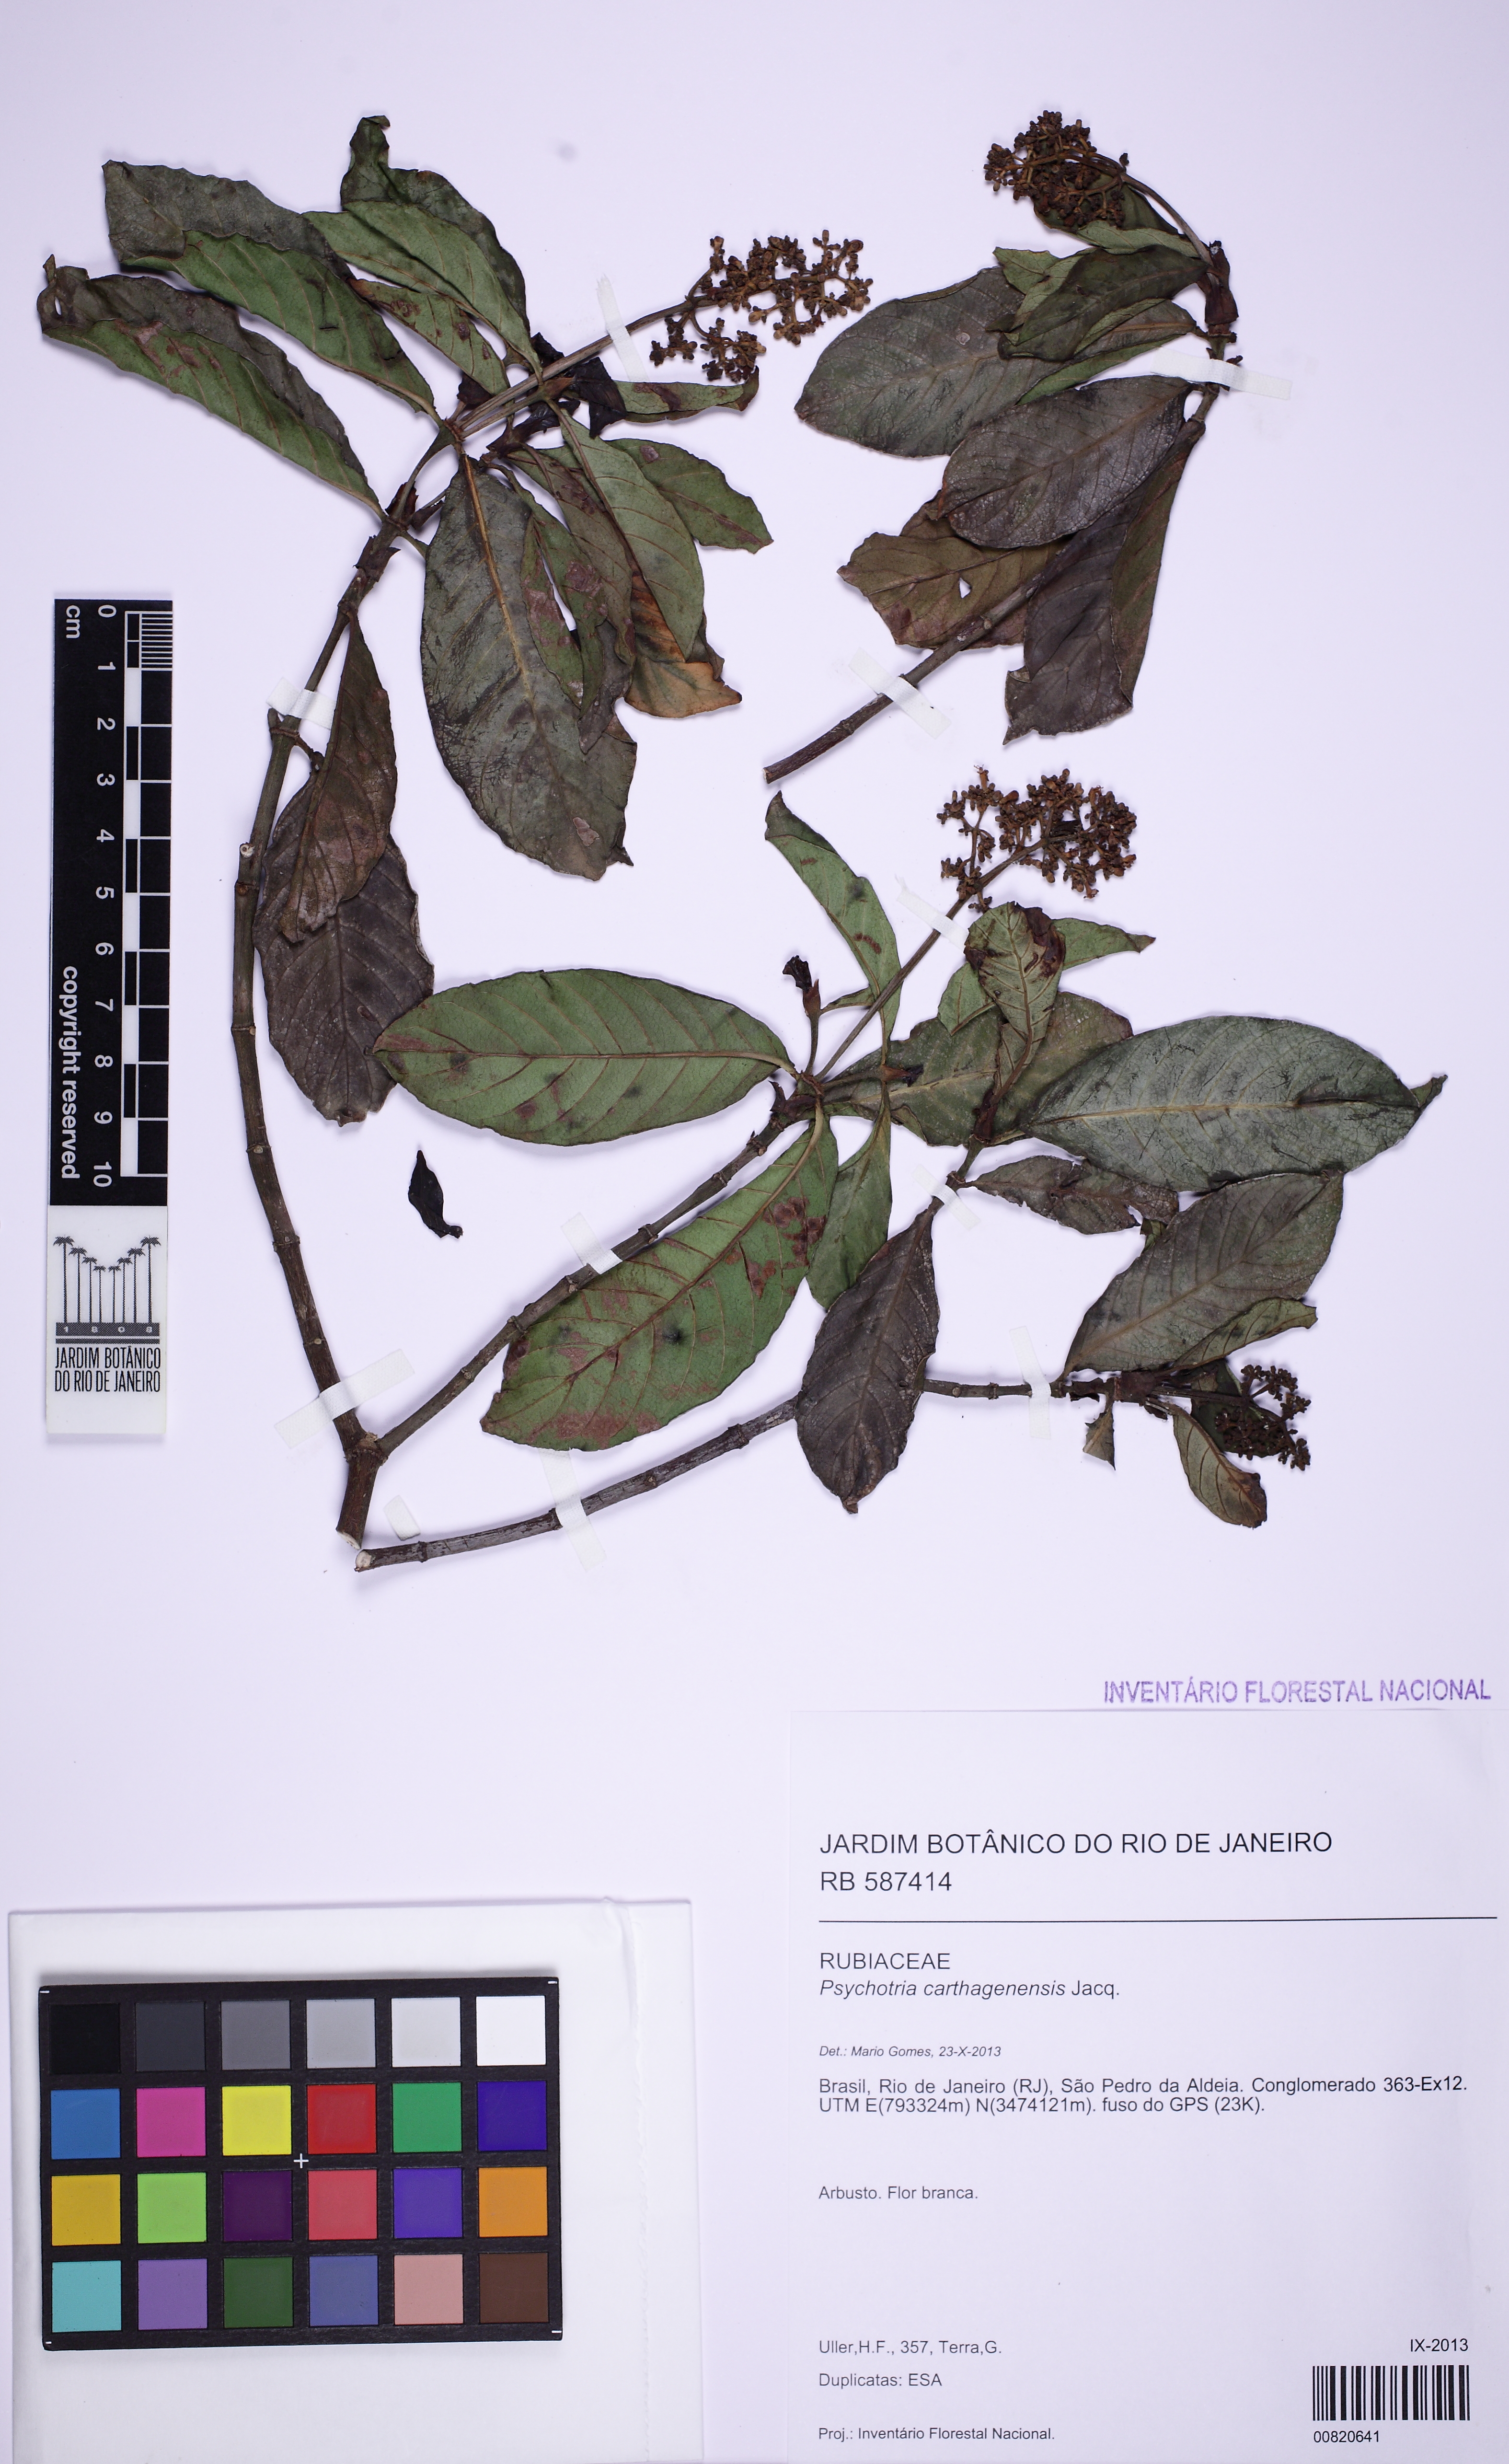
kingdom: Plantae
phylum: Tracheophyta
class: Magnoliopsida
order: Gentianales
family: Rubiaceae
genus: Psychotria
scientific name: Psychotria carthagenensis
